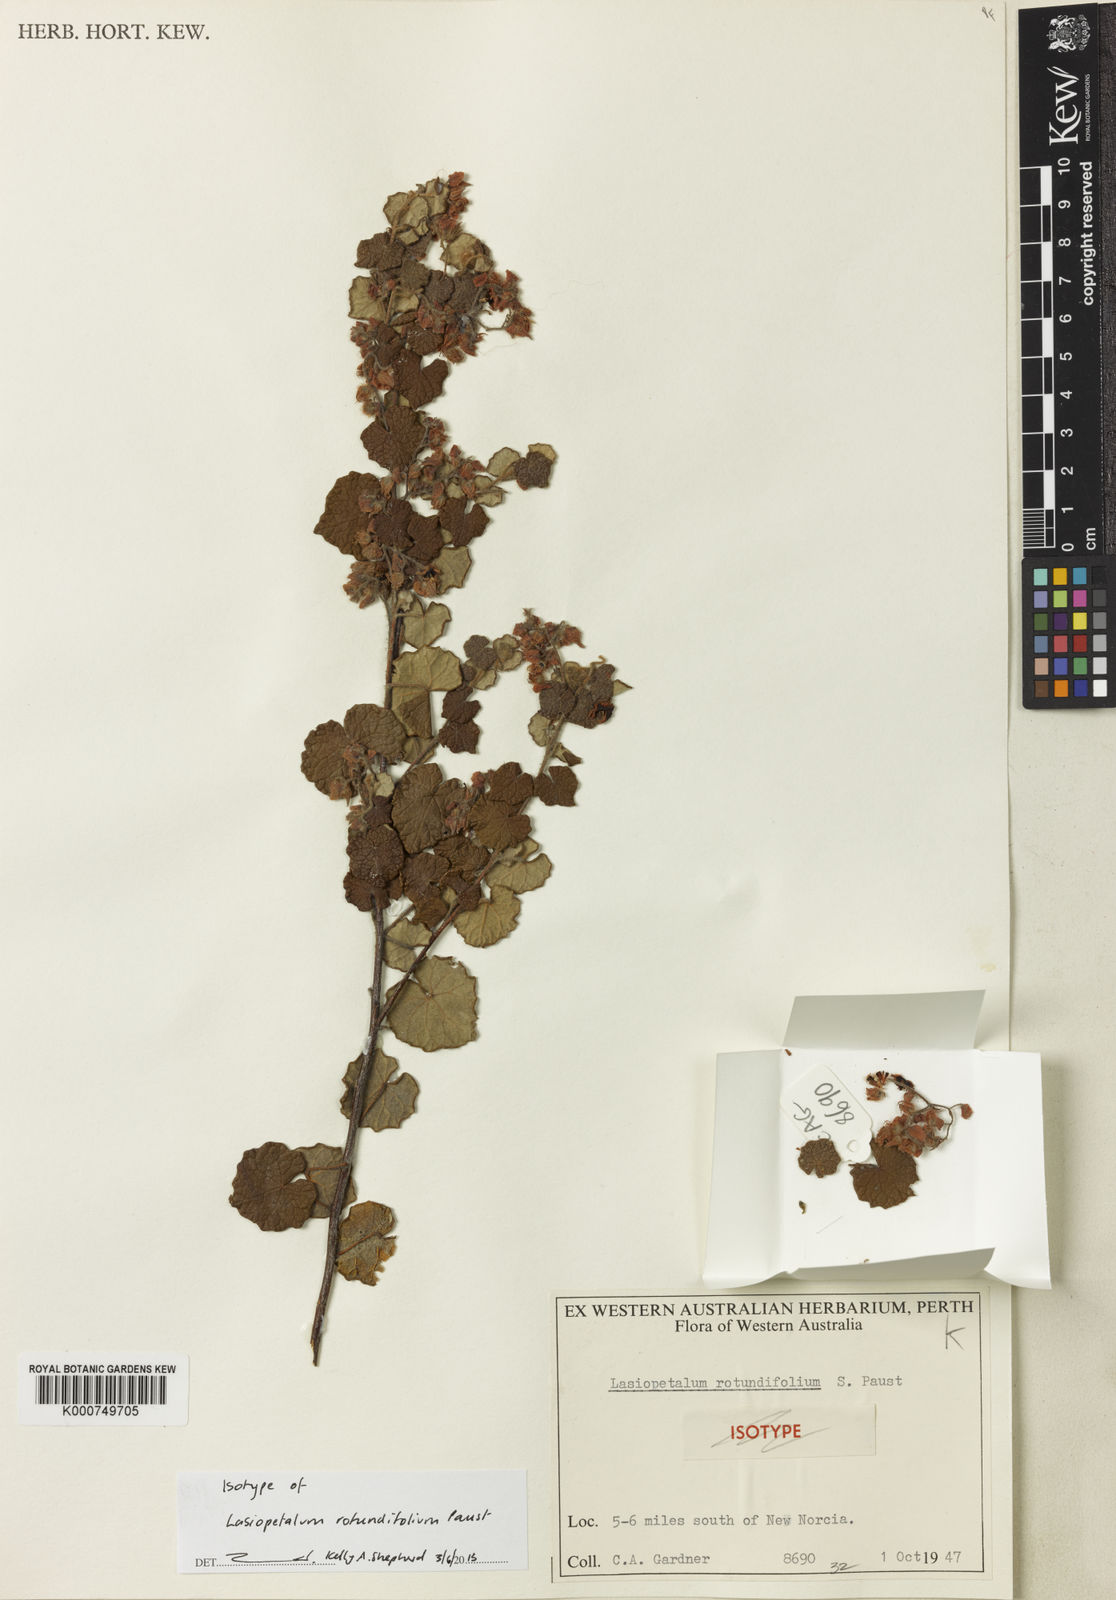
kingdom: Plantae
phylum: Tracheophyta
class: Magnoliopsida
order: Malvales
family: Malvaceae
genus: Lasiopetalum
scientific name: Lasiopetalum rotundifolium
